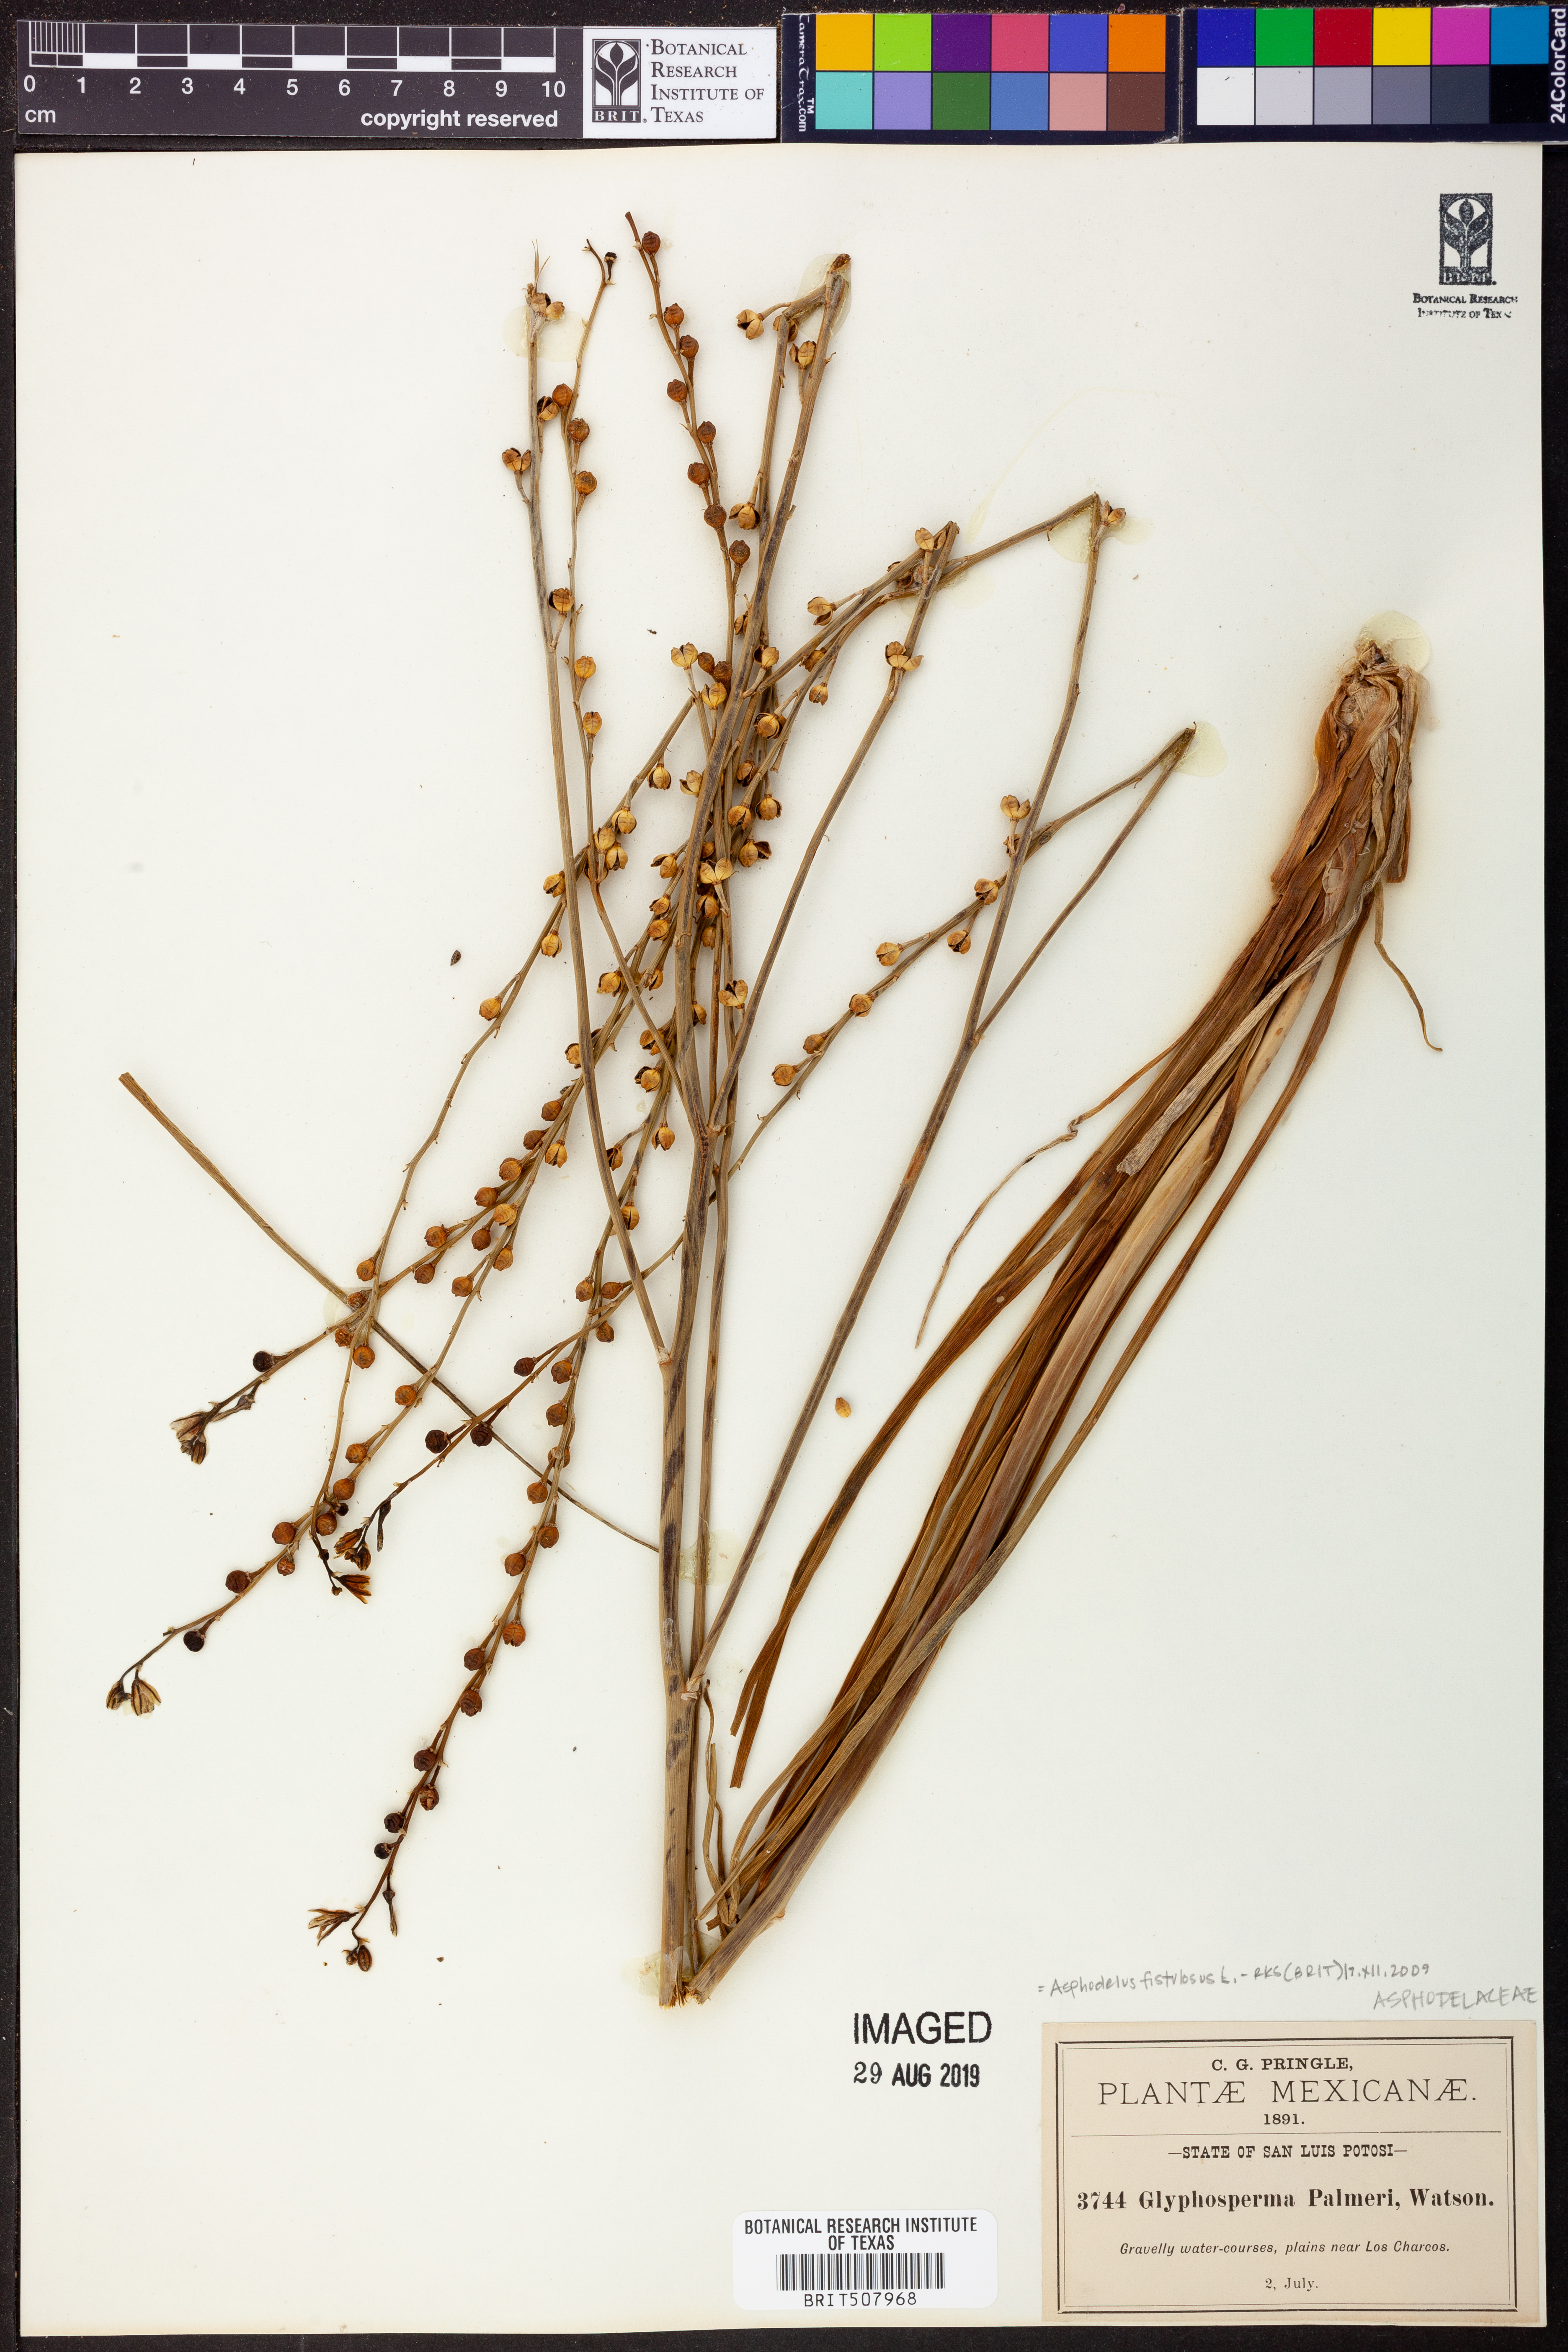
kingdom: Plantae
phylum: Tracheophyta
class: Liliopsida
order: Asparagales
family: Asphodelaceae
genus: Asphodelus
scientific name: Asphodelus fistulosus
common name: Onionweed
